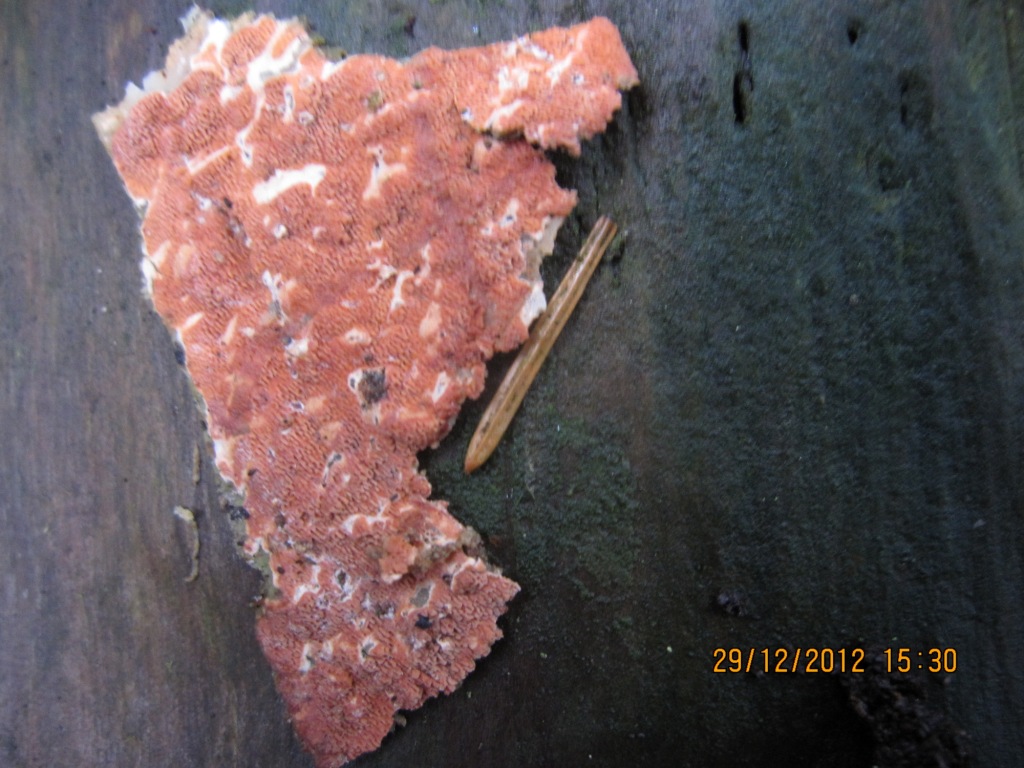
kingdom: Fungi
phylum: Basidiomycota
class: Agaricomycetes
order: Polyporales
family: Irpicaceae
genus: Meruliopsis
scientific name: Meruliopsis taxicola
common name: purpurbrun foldporesvamp
